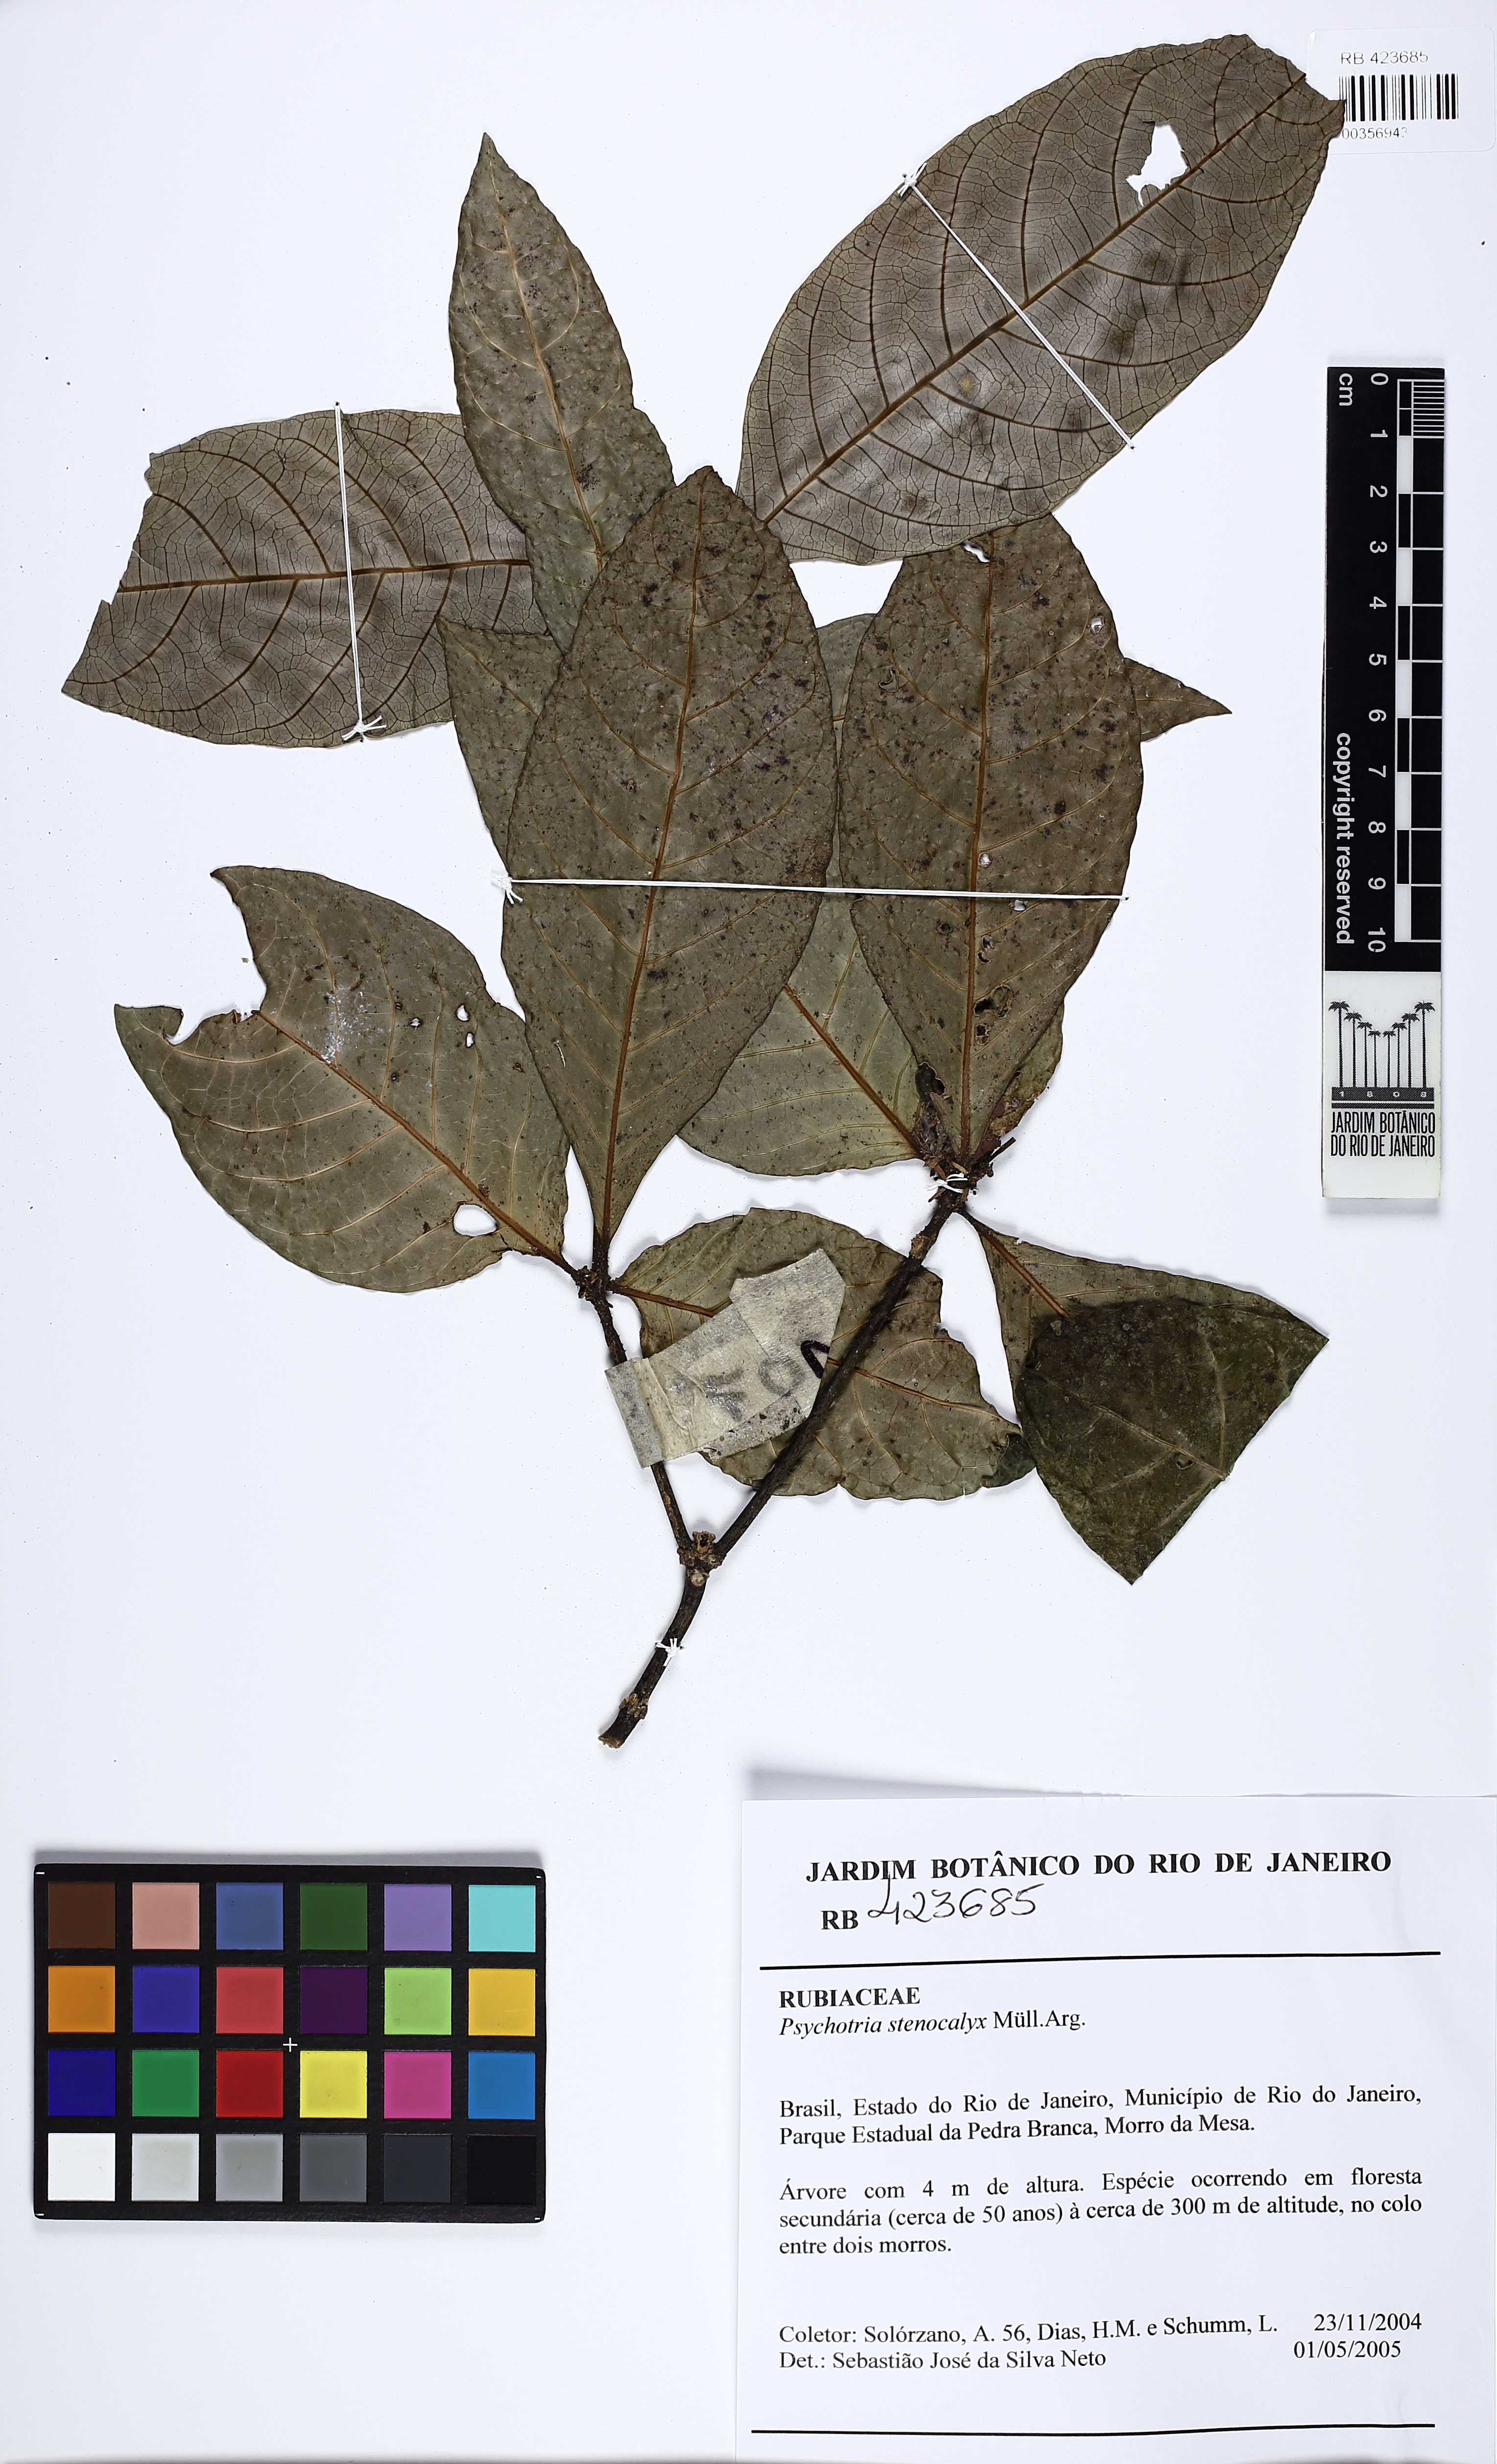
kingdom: Plantae
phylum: Tracheophyta
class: Magnoliopsida
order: Gentianales
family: Rubiaceae
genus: Psychotria
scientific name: Psychotria stenocalyx
